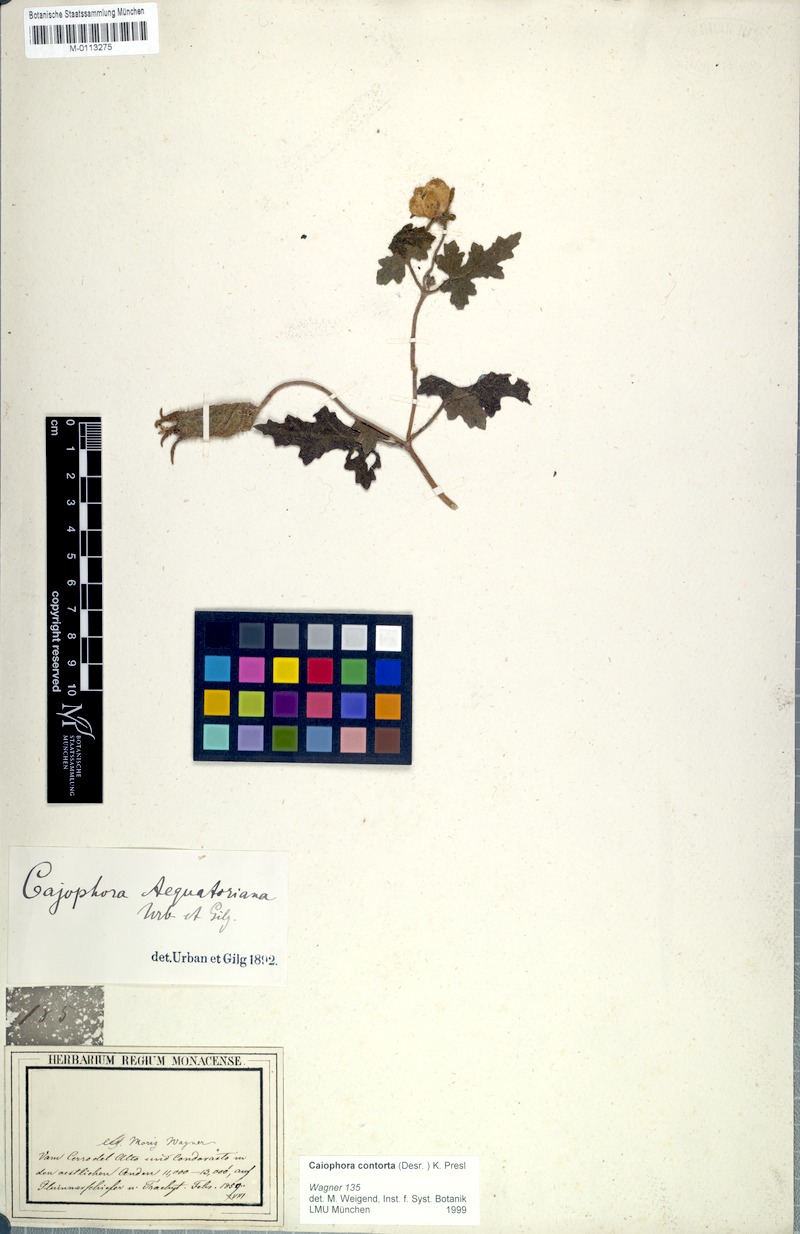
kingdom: Plantae
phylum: Tracheophyta
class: Magnoliopsida
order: Cornales
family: Loasaceae
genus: Caiophora
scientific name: Caiophora contorta
